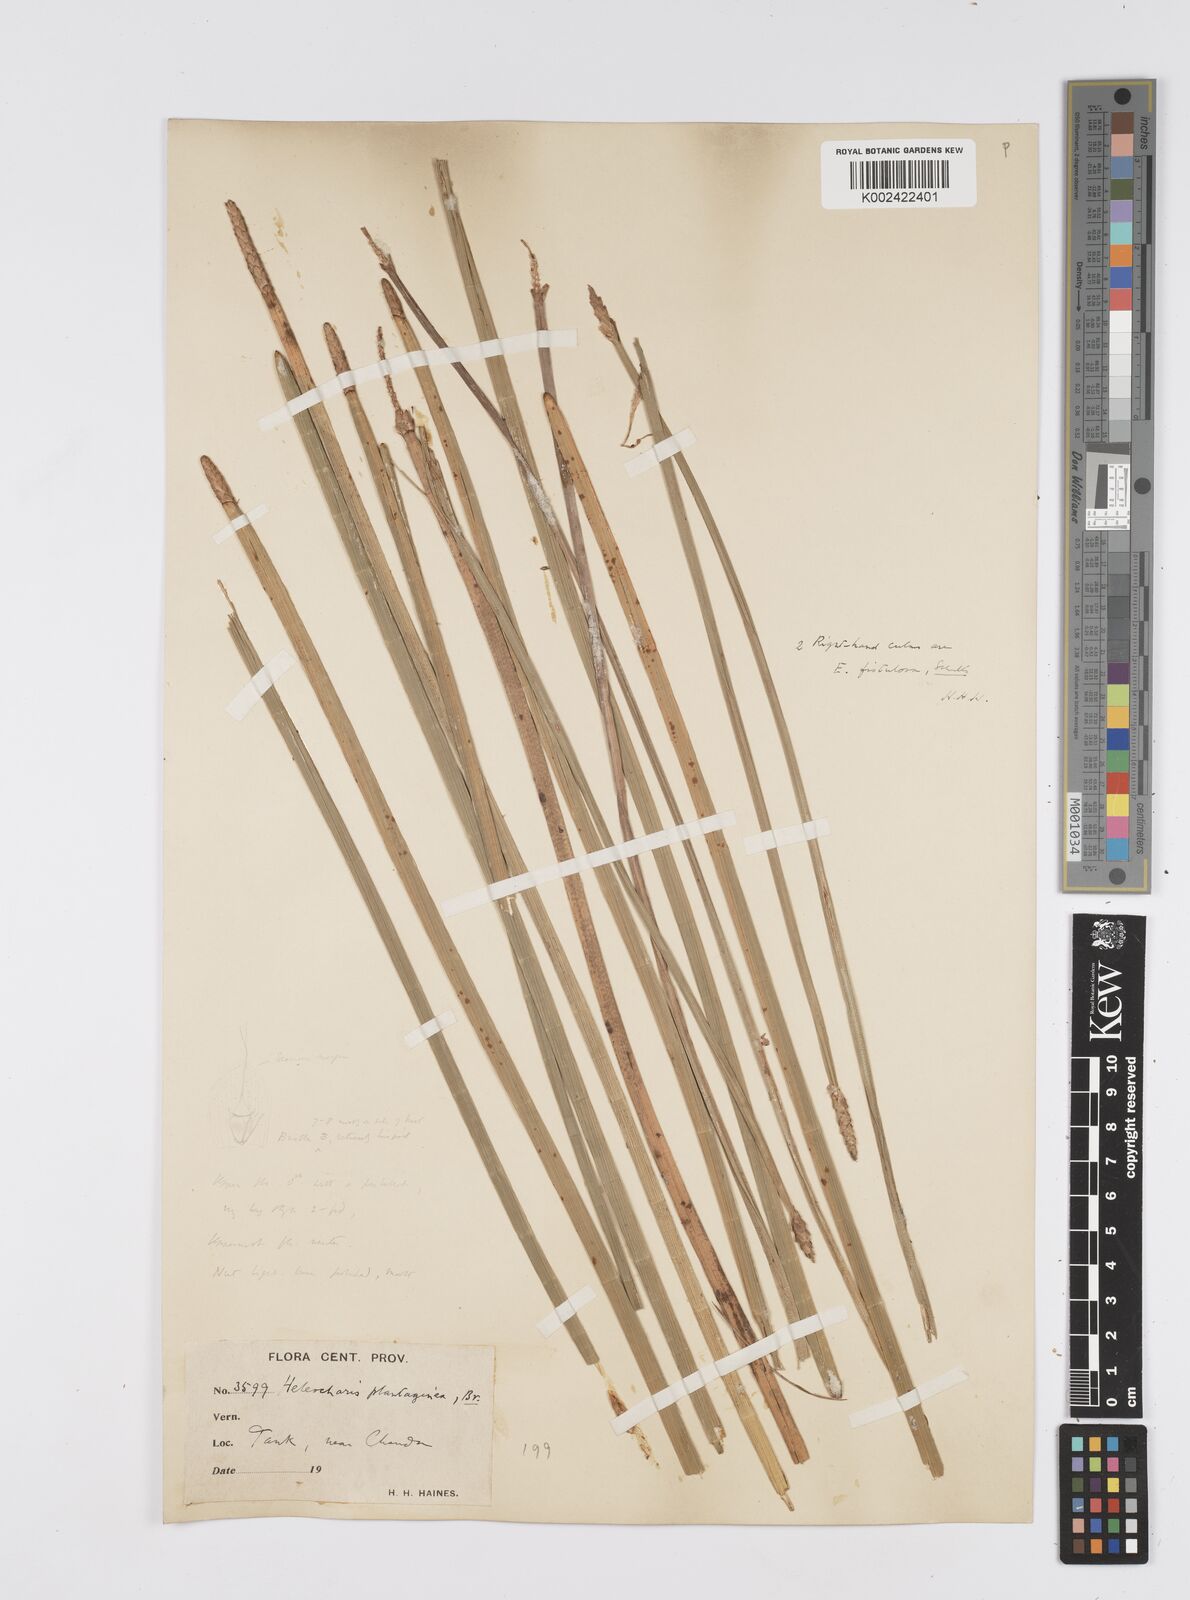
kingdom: Plantae
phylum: Tracheophyta
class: Liliopsida
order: Poales
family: Cyperaceae
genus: Eleocharis
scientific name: Eleocharis dulcis
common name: Chinese water chestnut
